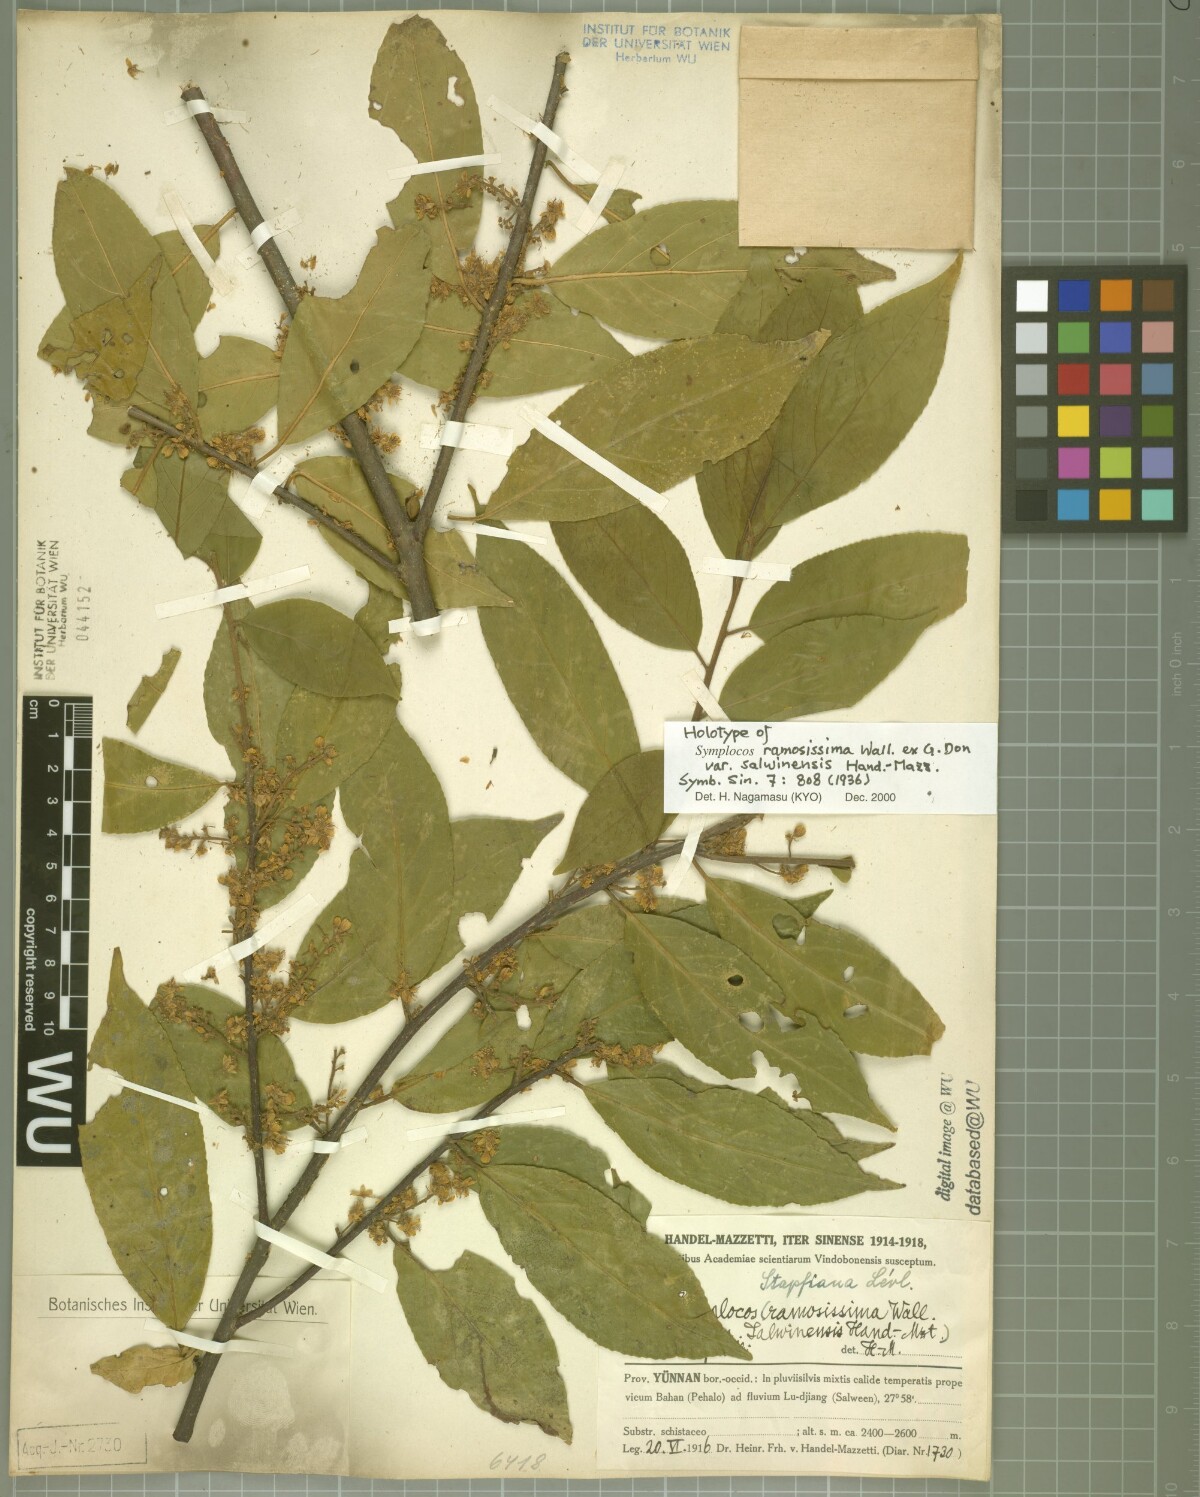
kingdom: Plantae
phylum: Tracheophyta
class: Magnoliopsida
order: Ericales
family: Symplocaceae
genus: Symplocos
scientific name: Symplocos ramosissima
